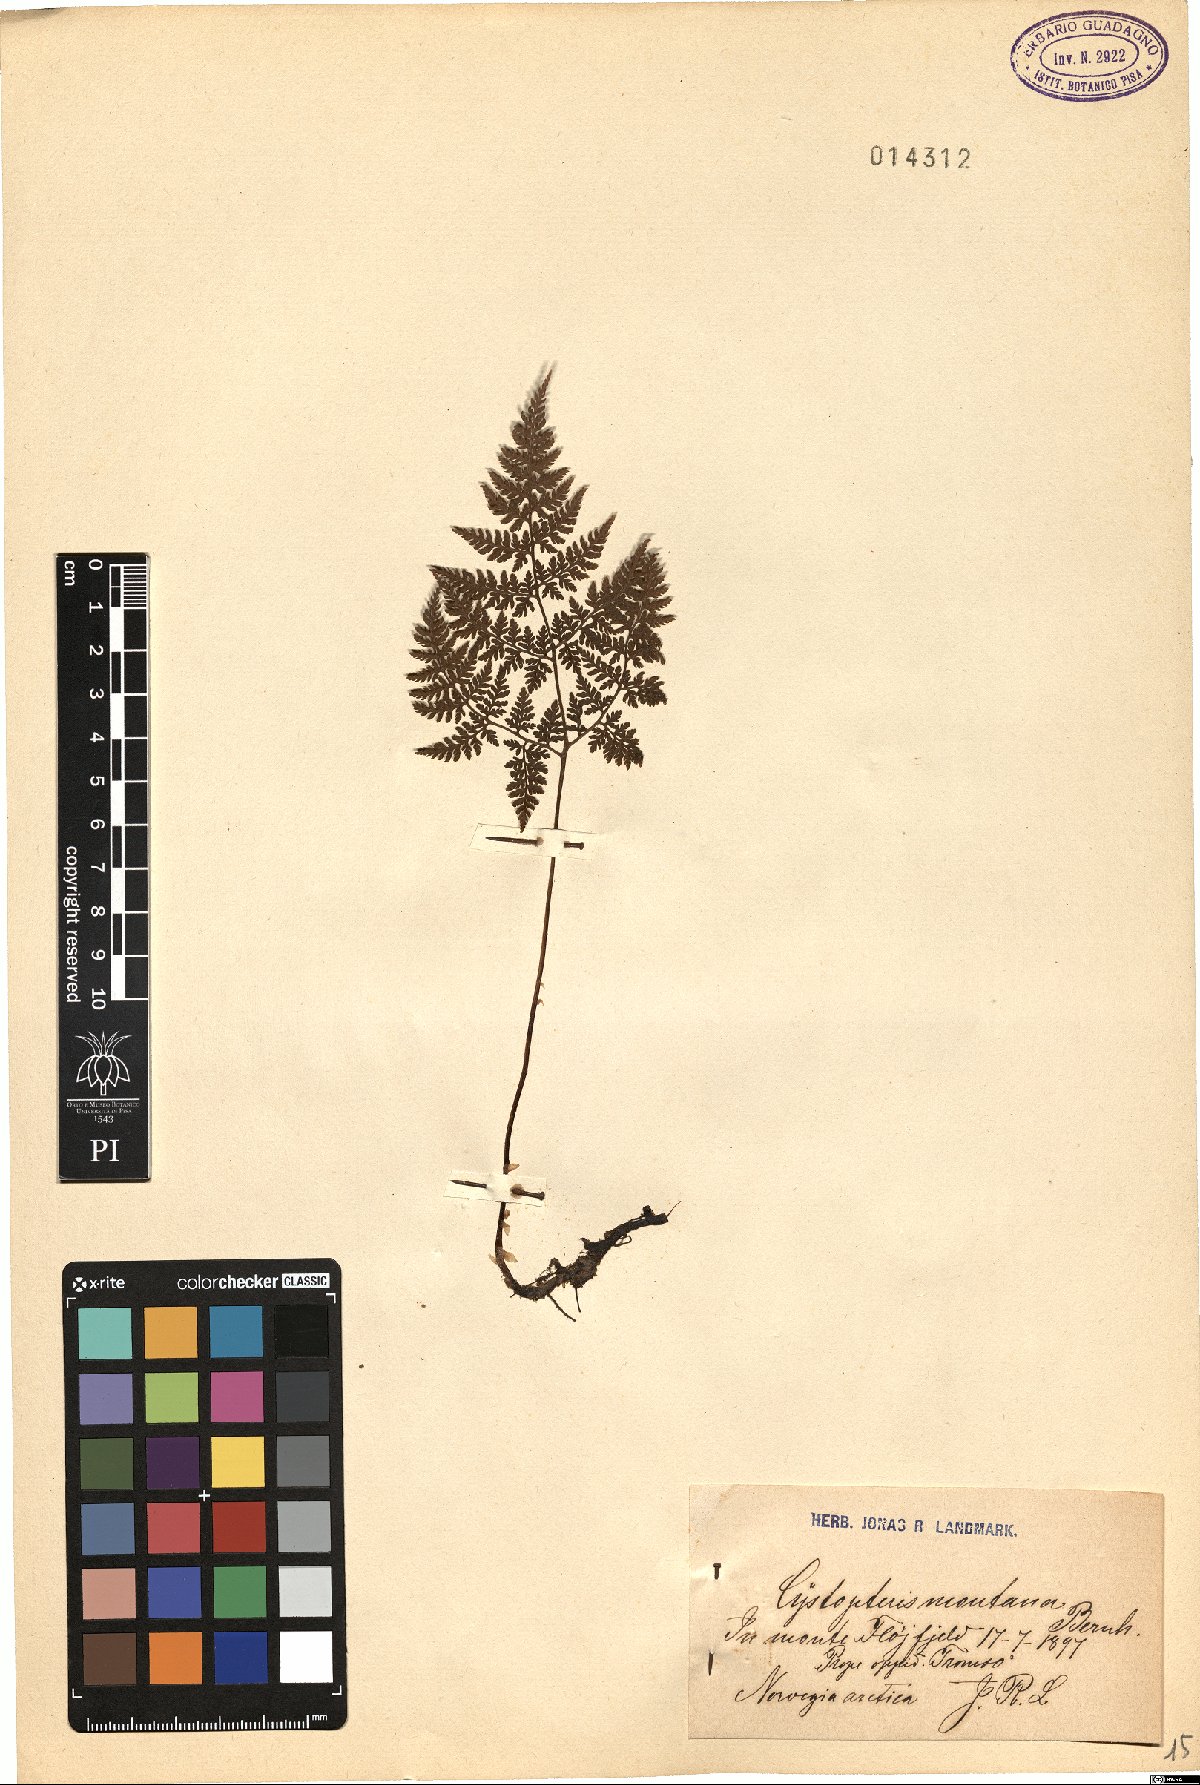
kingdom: Plantae
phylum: Tracheophyta
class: Polypodiopsida
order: Polypodiales
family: Cystopteridaceae
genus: Cystopteris
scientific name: Cystopteris montana
